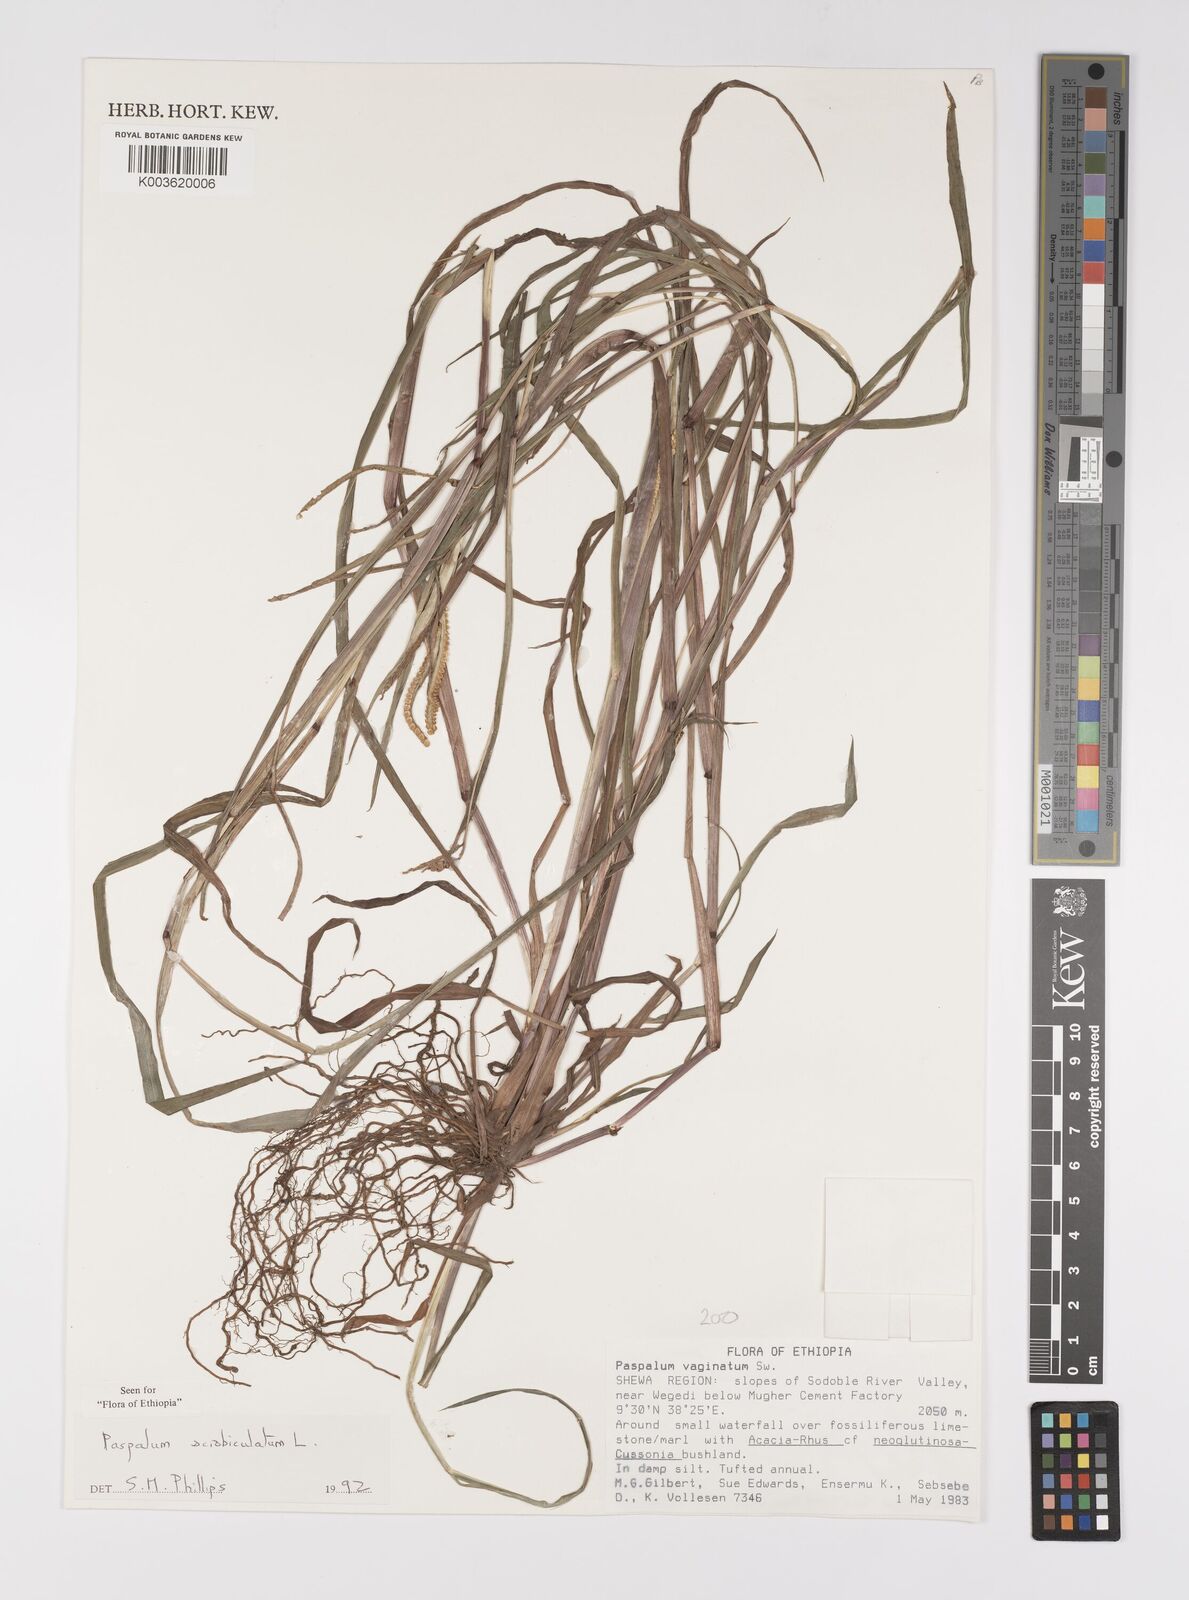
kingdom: Plantae
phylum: Tracheophyta
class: Liliopsida
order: Poales
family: Poaceae
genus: Paspalum
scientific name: Paspalum scrobiculatum
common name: Kodo millet
